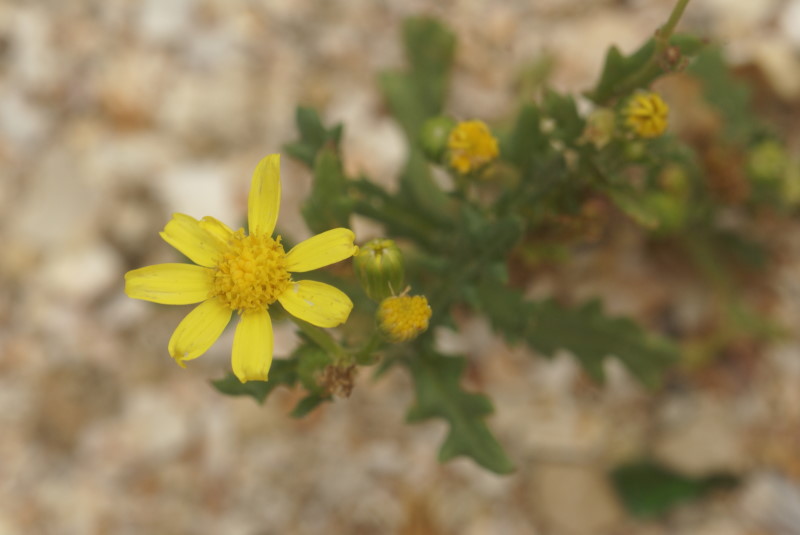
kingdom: Plantae
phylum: Tracheophyta
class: Magnoliopsida
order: Asterales
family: Asteraceae
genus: Senecio
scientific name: Senecio squalidus
